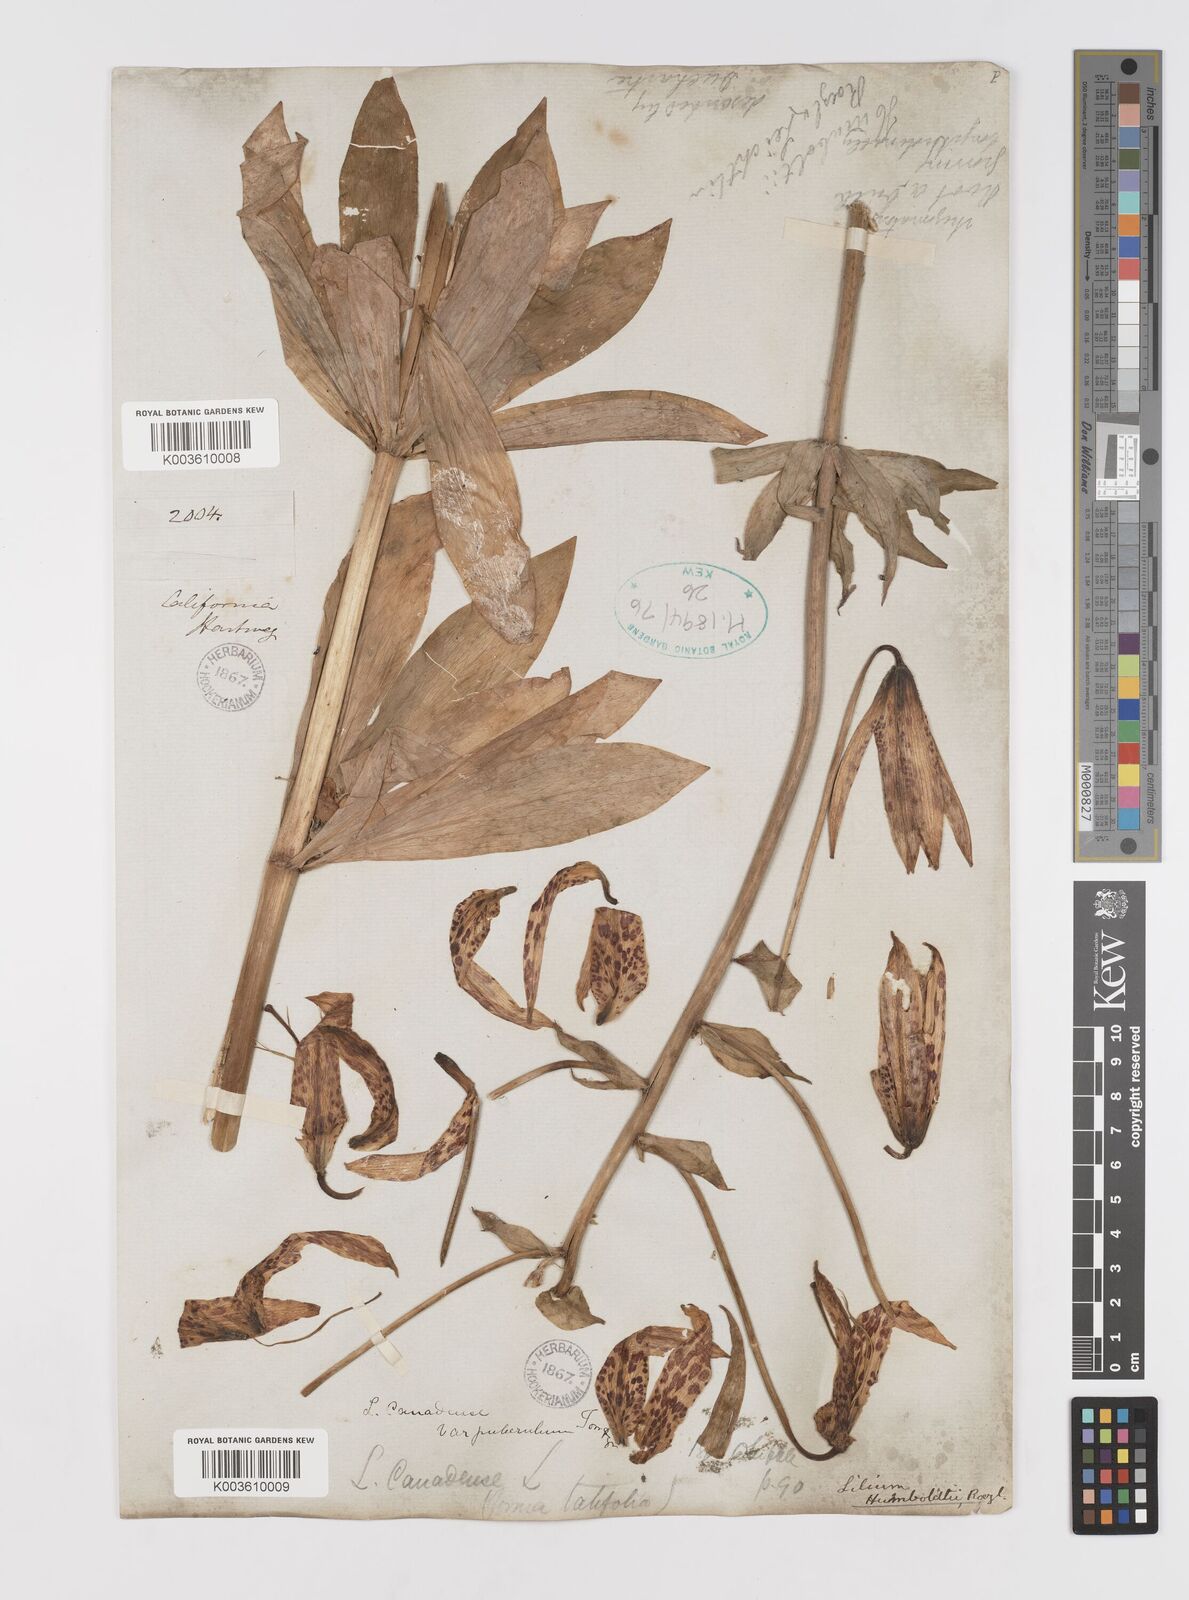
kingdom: Plantae
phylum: Tracheophyta
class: Liliopsida
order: Liliales
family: Liliaceae
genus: Lilium
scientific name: Lilium humboldtii
